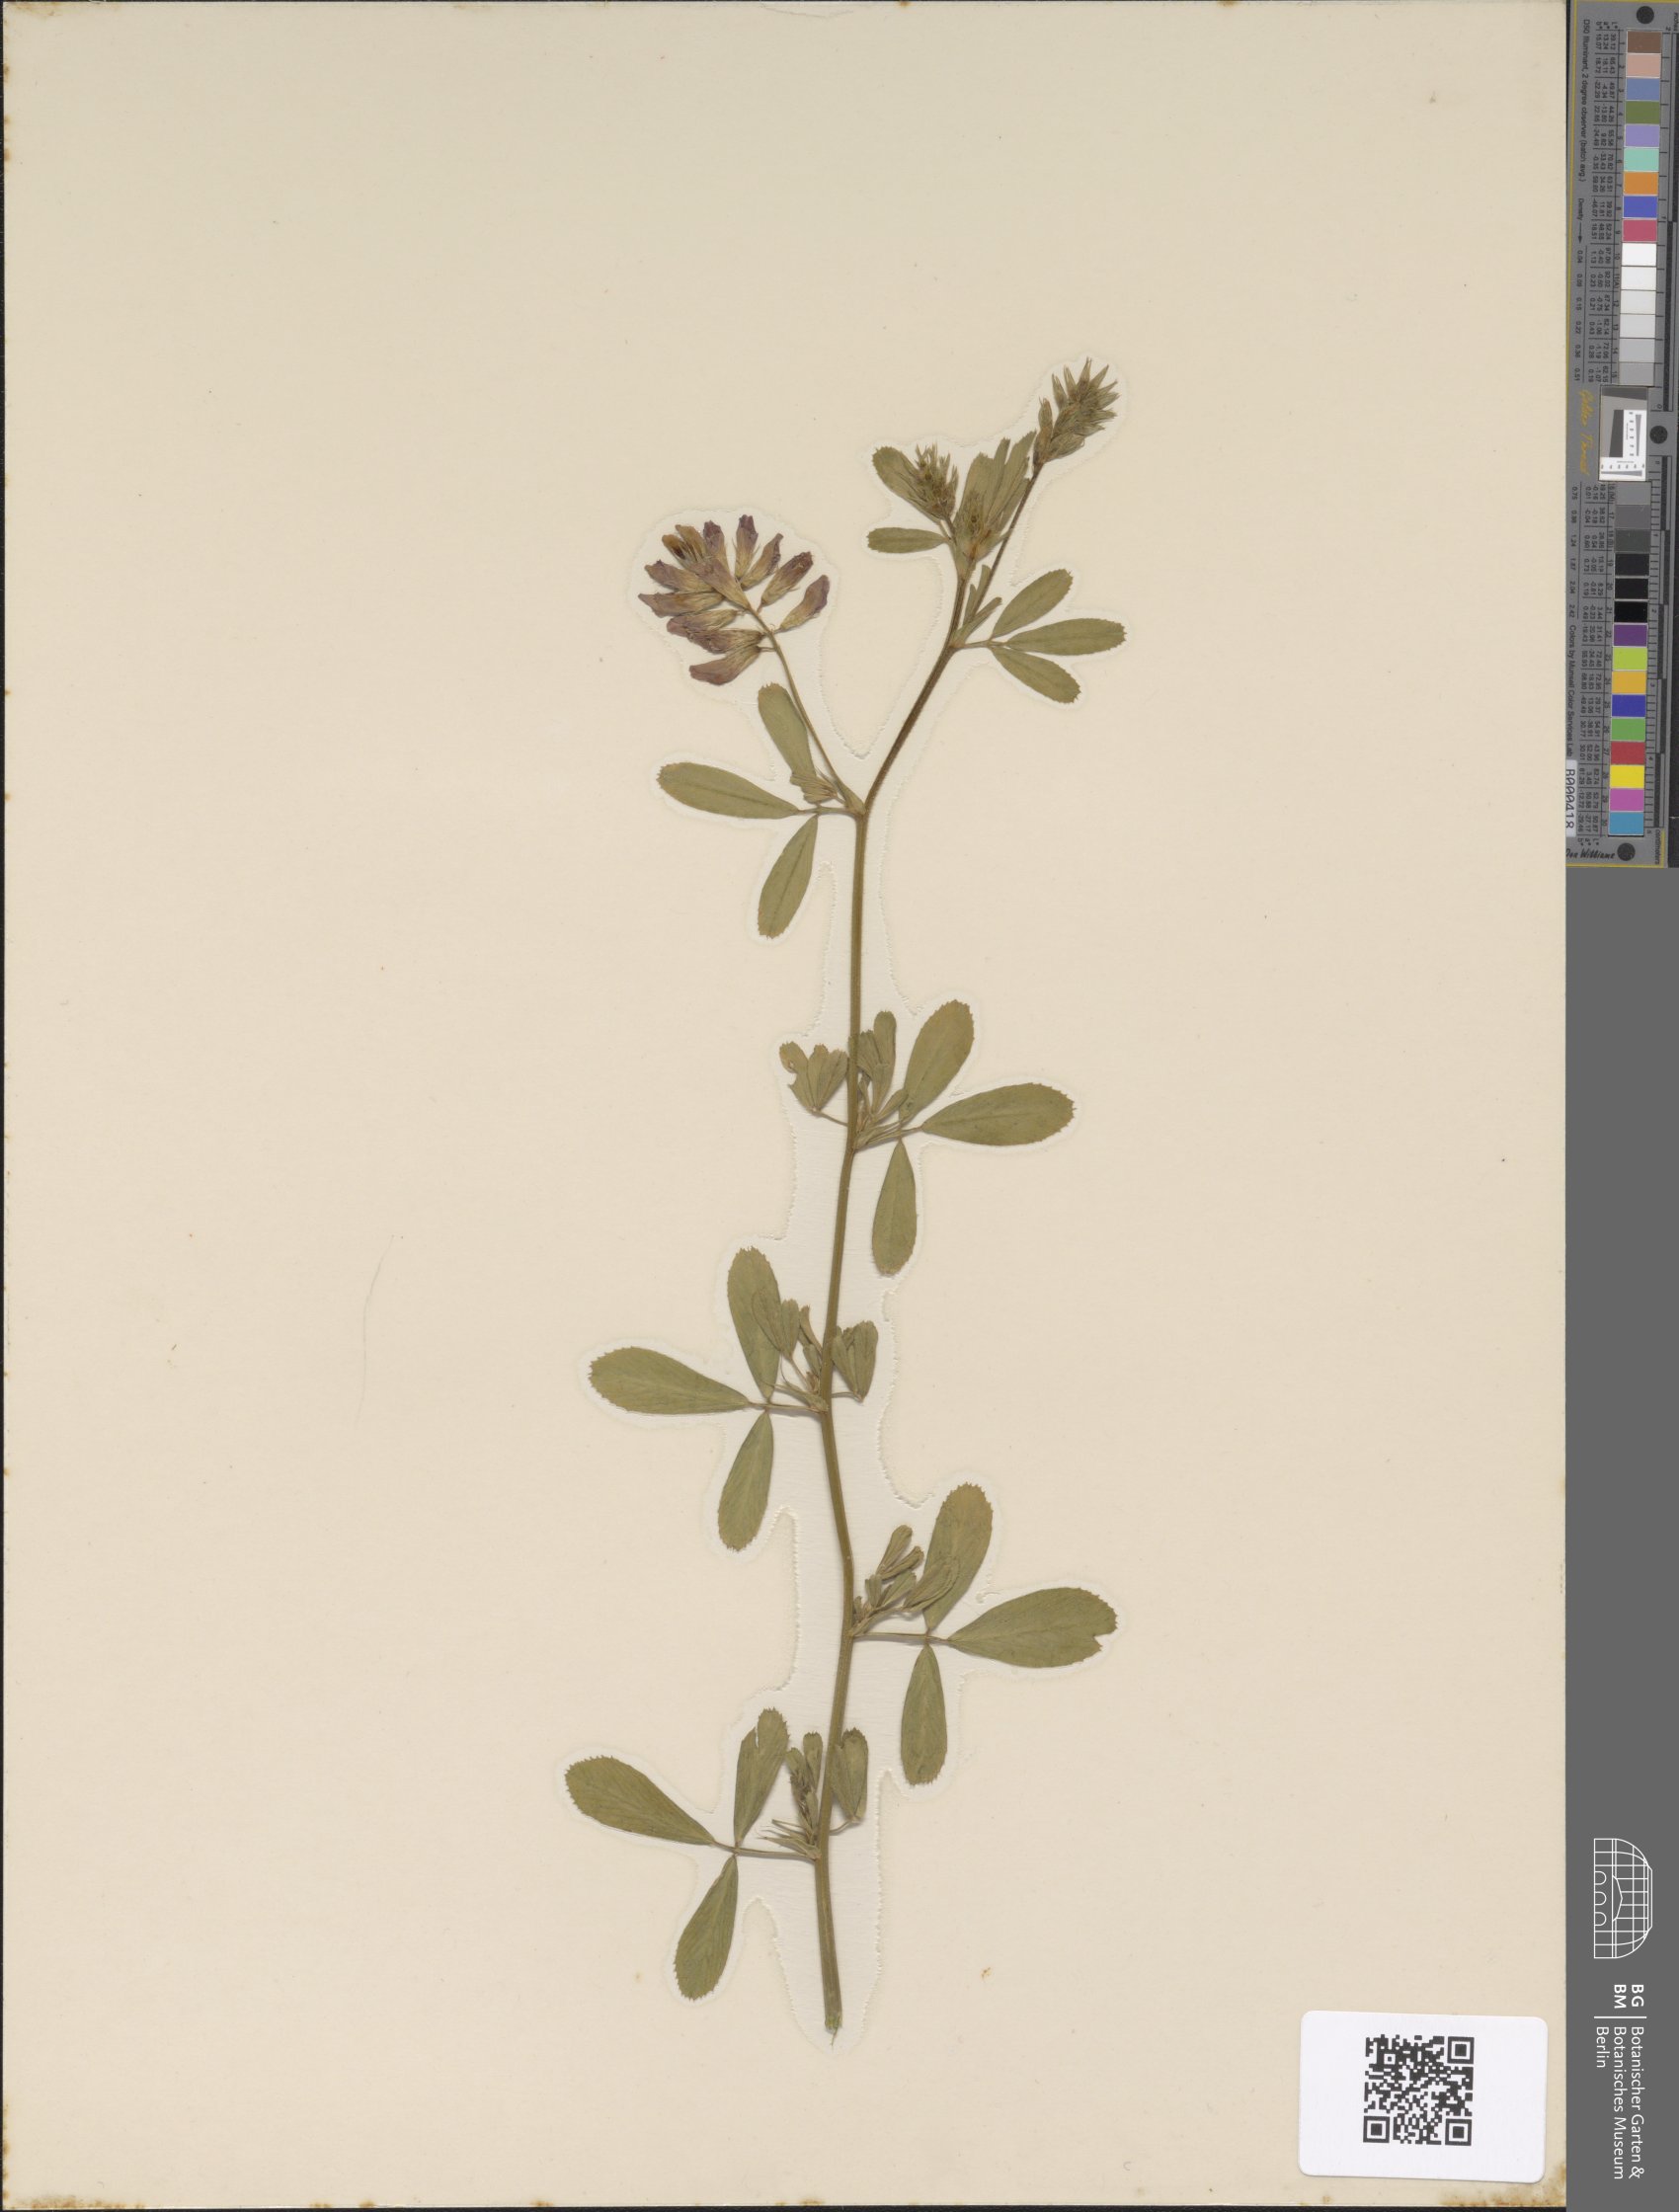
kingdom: Plantae
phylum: Tracheophyta
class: Magnoliopsida
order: Fabales
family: Fabaceae
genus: Medicago
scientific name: Medicago sativa
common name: Alfalfa
